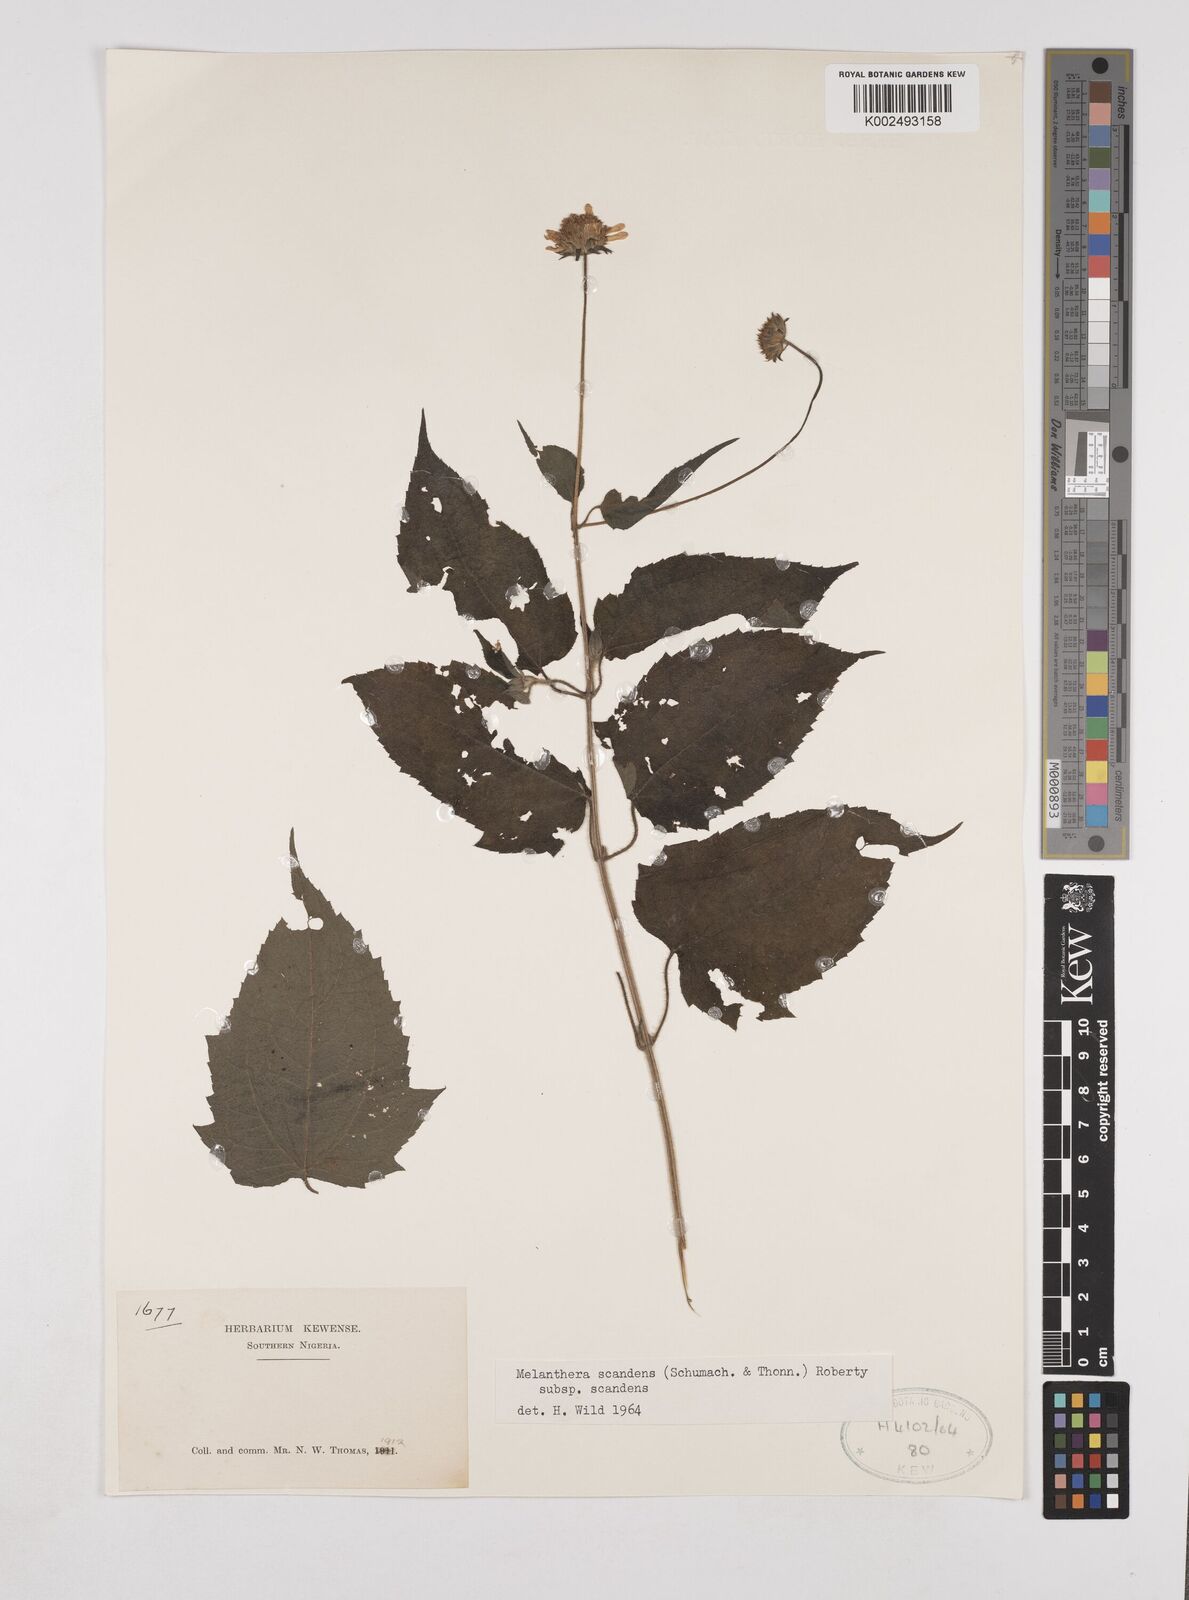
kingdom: Plantae
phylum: Tracheophyta
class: Magnoliopsida
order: Asterales
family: Asteraceae
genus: Lipotriche
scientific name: Lipotriche scandens
